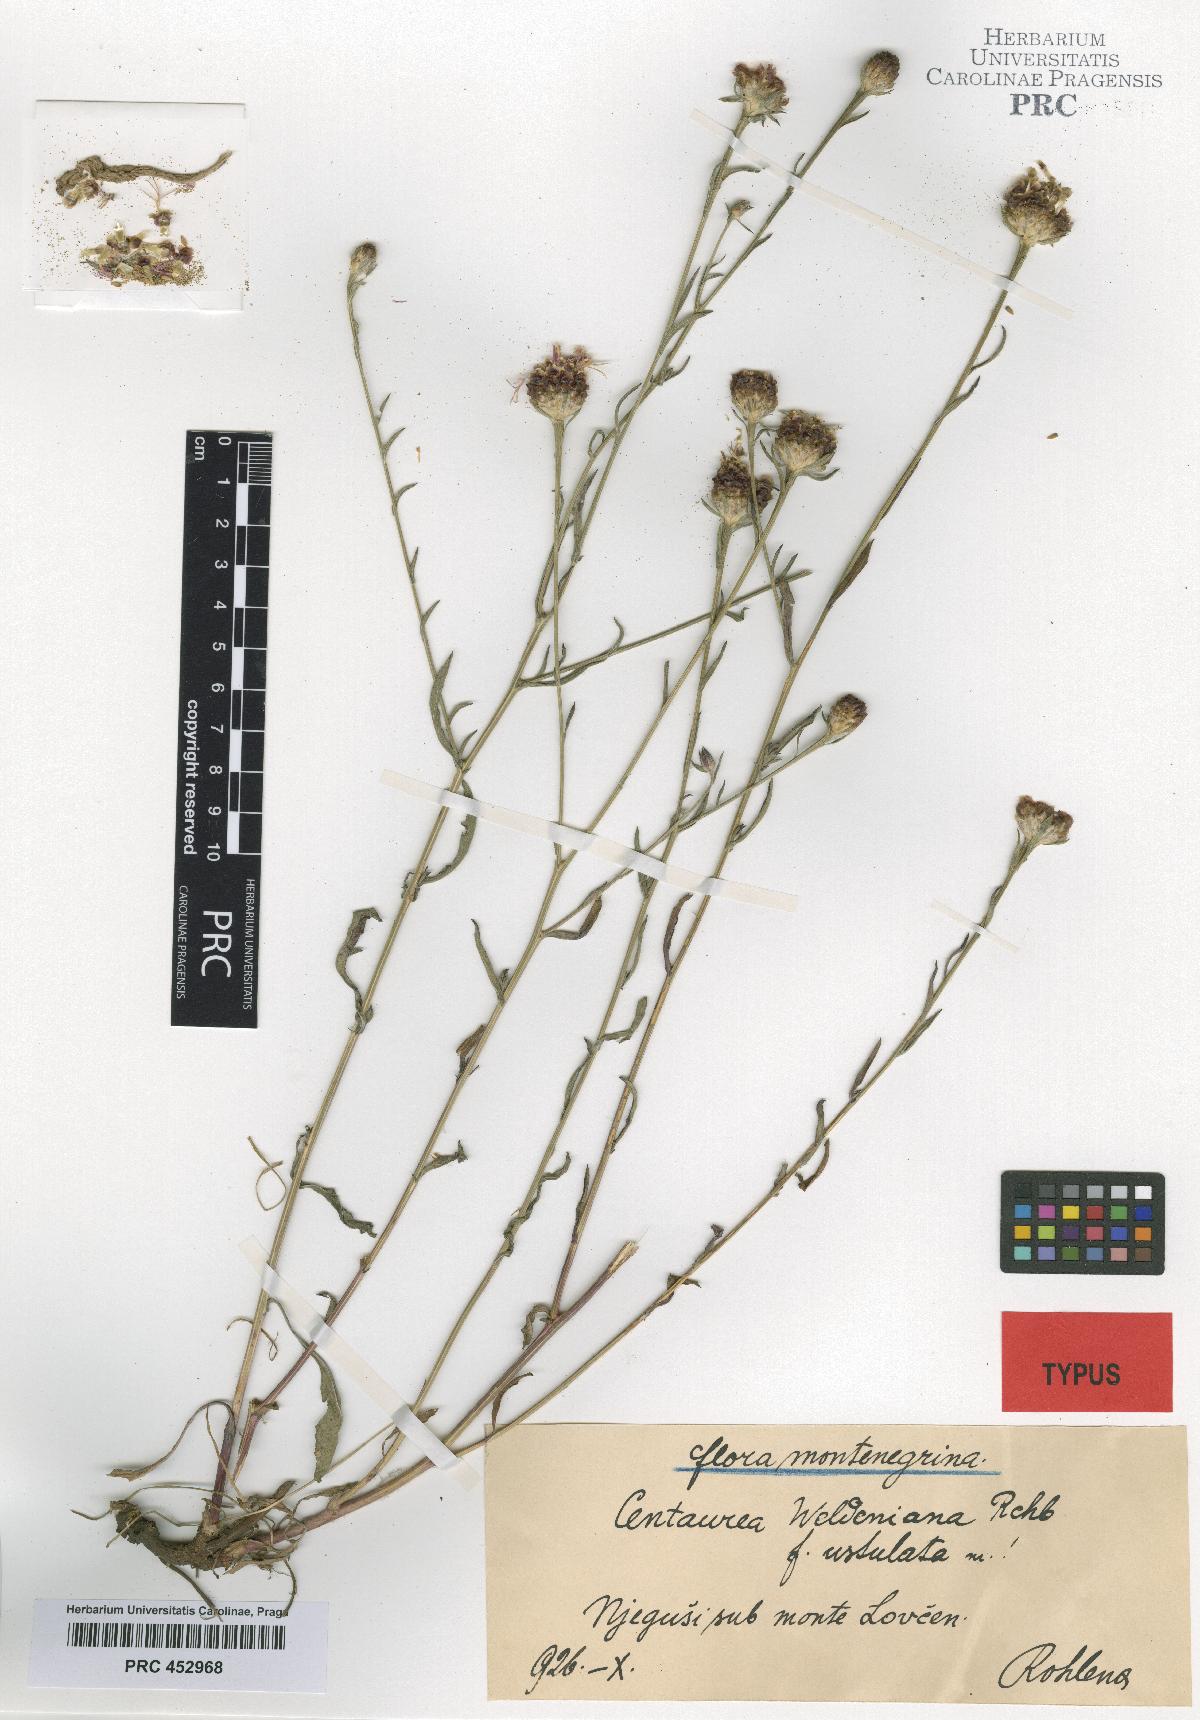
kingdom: Plantae
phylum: Tracheophyta
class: Magnoliopsida
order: Asterales
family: Asteraceae
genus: Centaurea
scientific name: Centaurea jacea
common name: Brown knapweed
